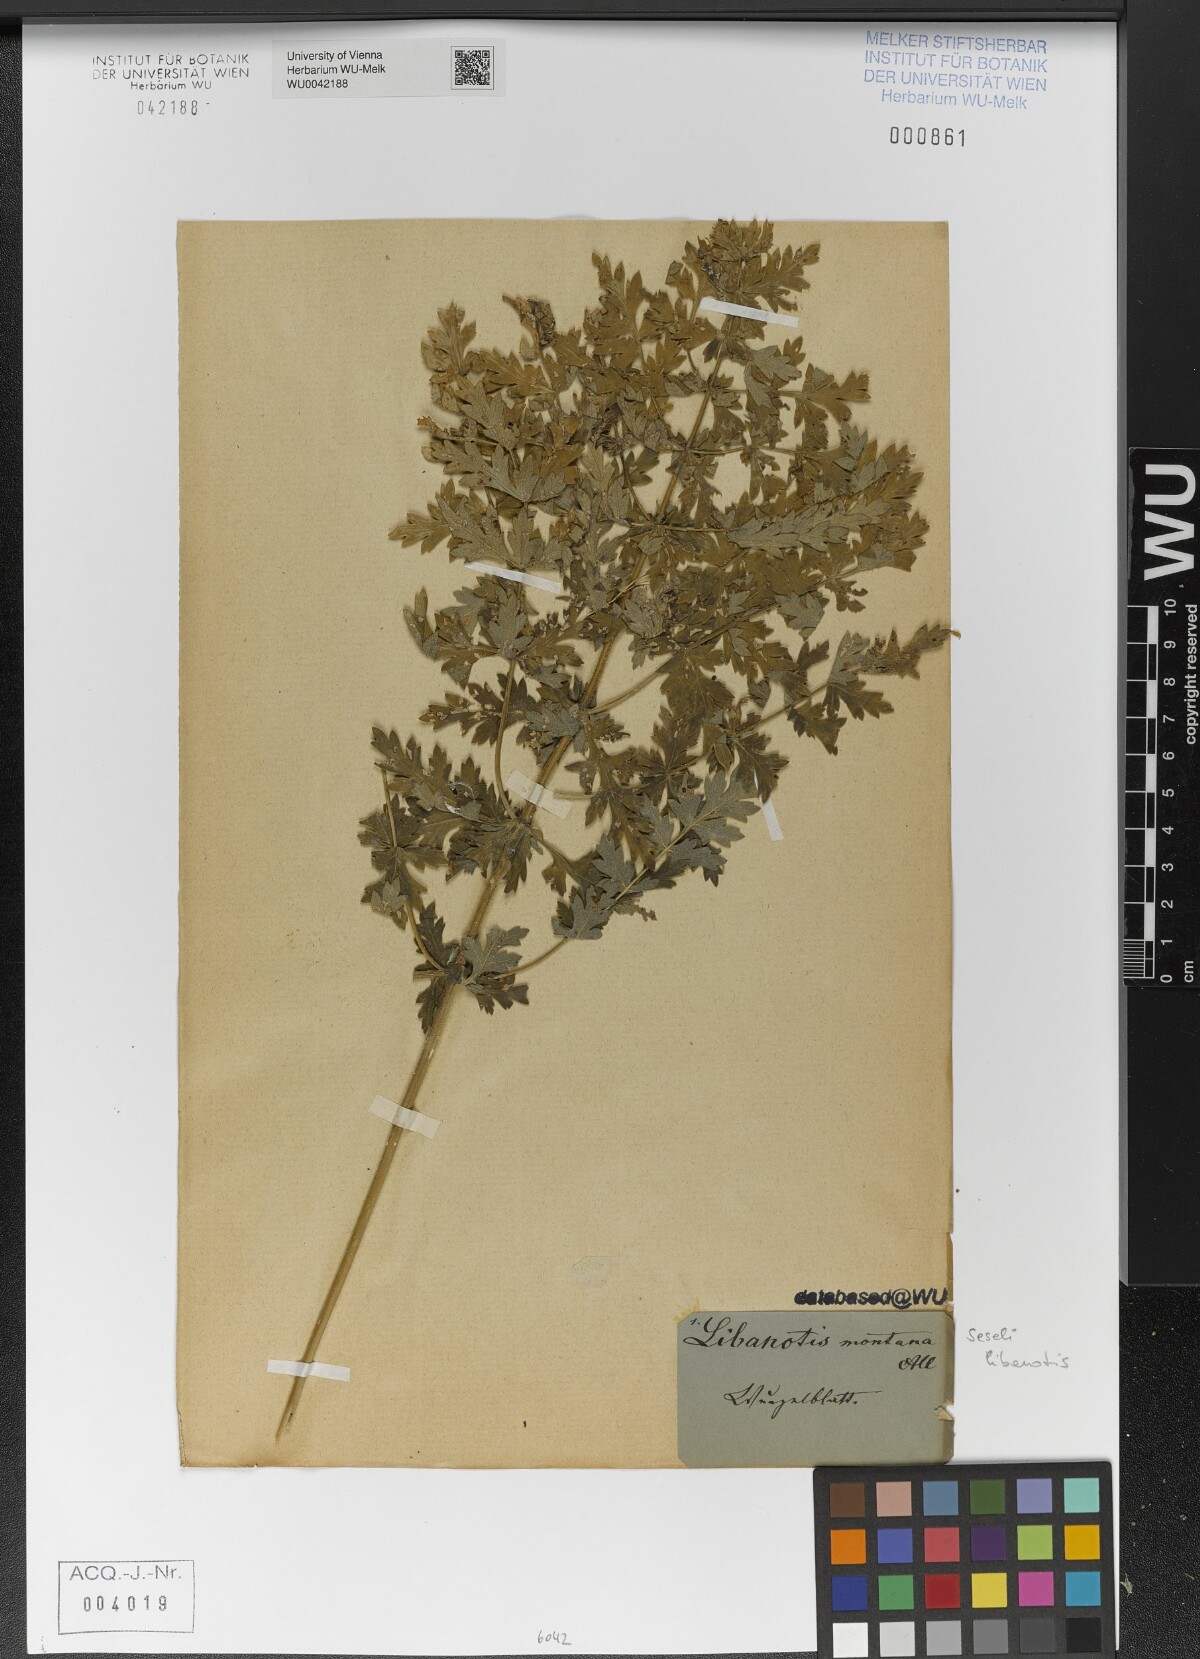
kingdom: Plantae
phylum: Tracheophyta
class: Magnoliopsida
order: Apiales
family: Apiaceae
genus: Seseli
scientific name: Seseli libanotis
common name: Mooncarrot
